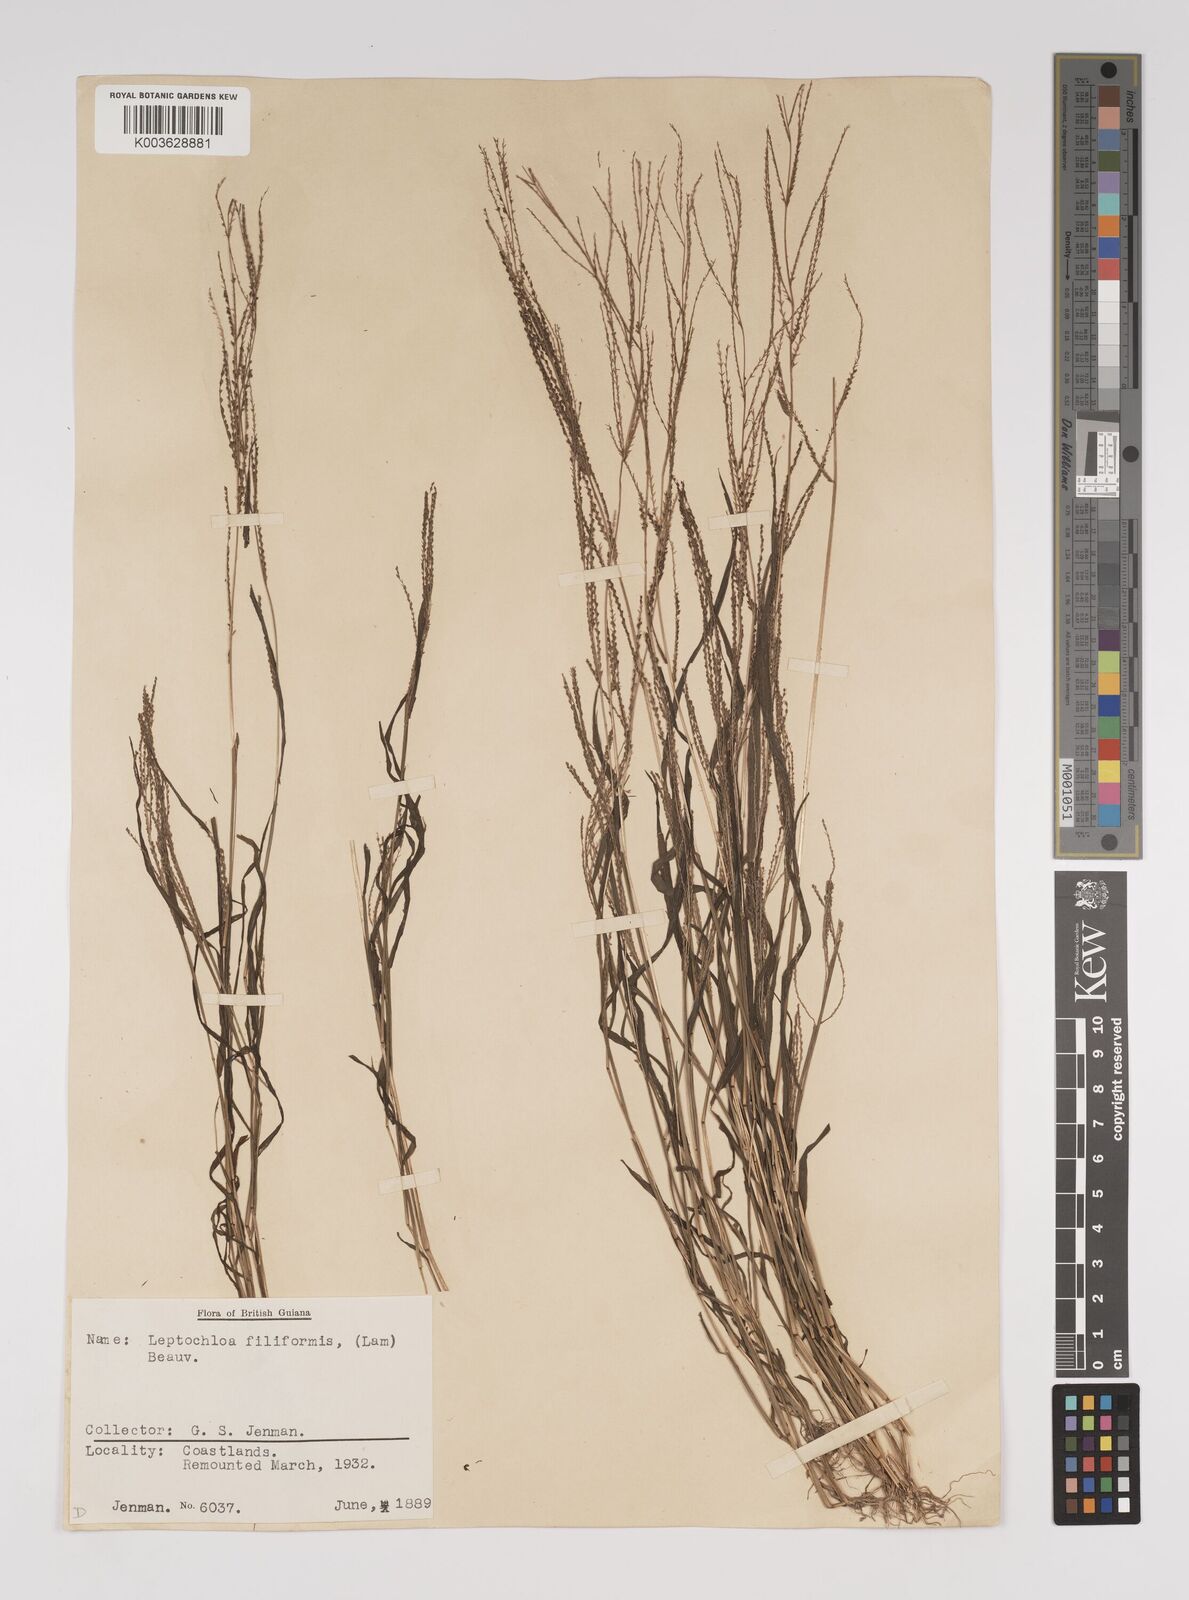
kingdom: Plantae
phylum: Tracheophyta
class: Liliopsida
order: Poales
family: Poaceae
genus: Leptochloa
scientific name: Leptochloa panicea
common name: Mucronate sprangletop
